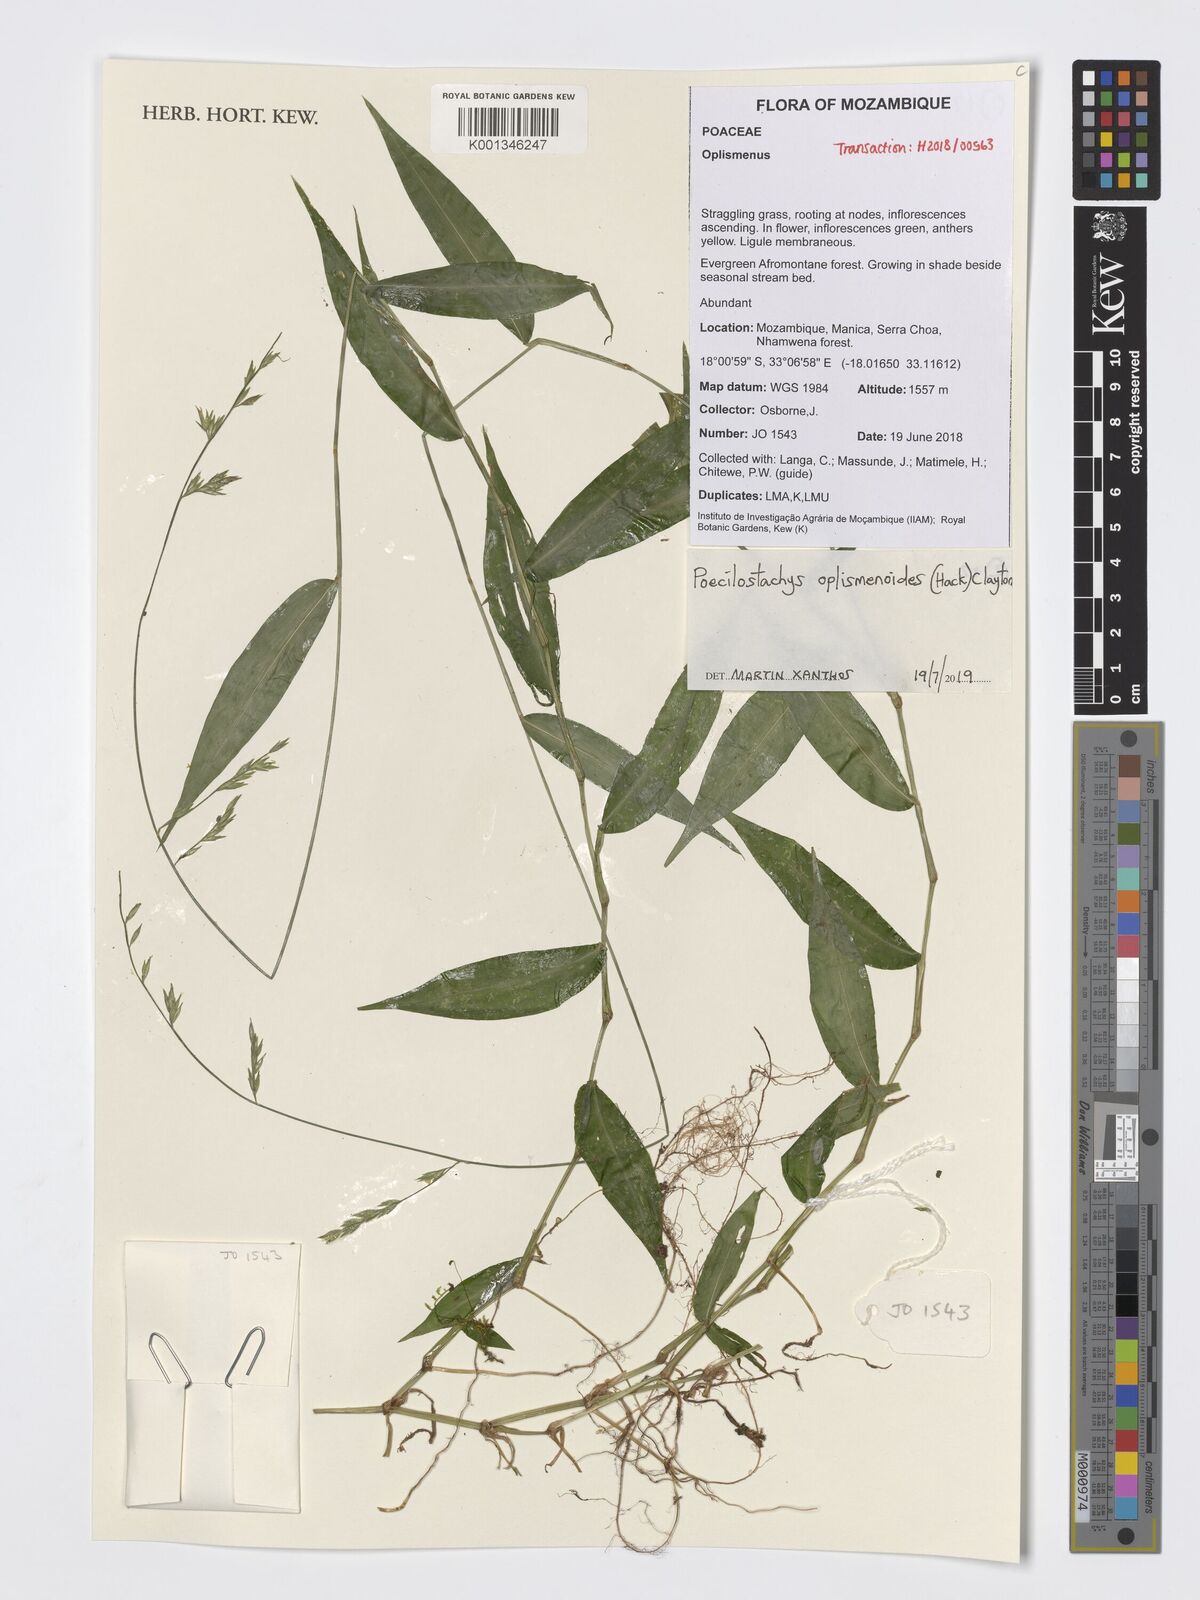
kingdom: Plantae
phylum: Tracheophyta
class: Liliopsida
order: Poales
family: Poaceae
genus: Poecilostachys
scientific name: Poecilostachys oplismenoides
